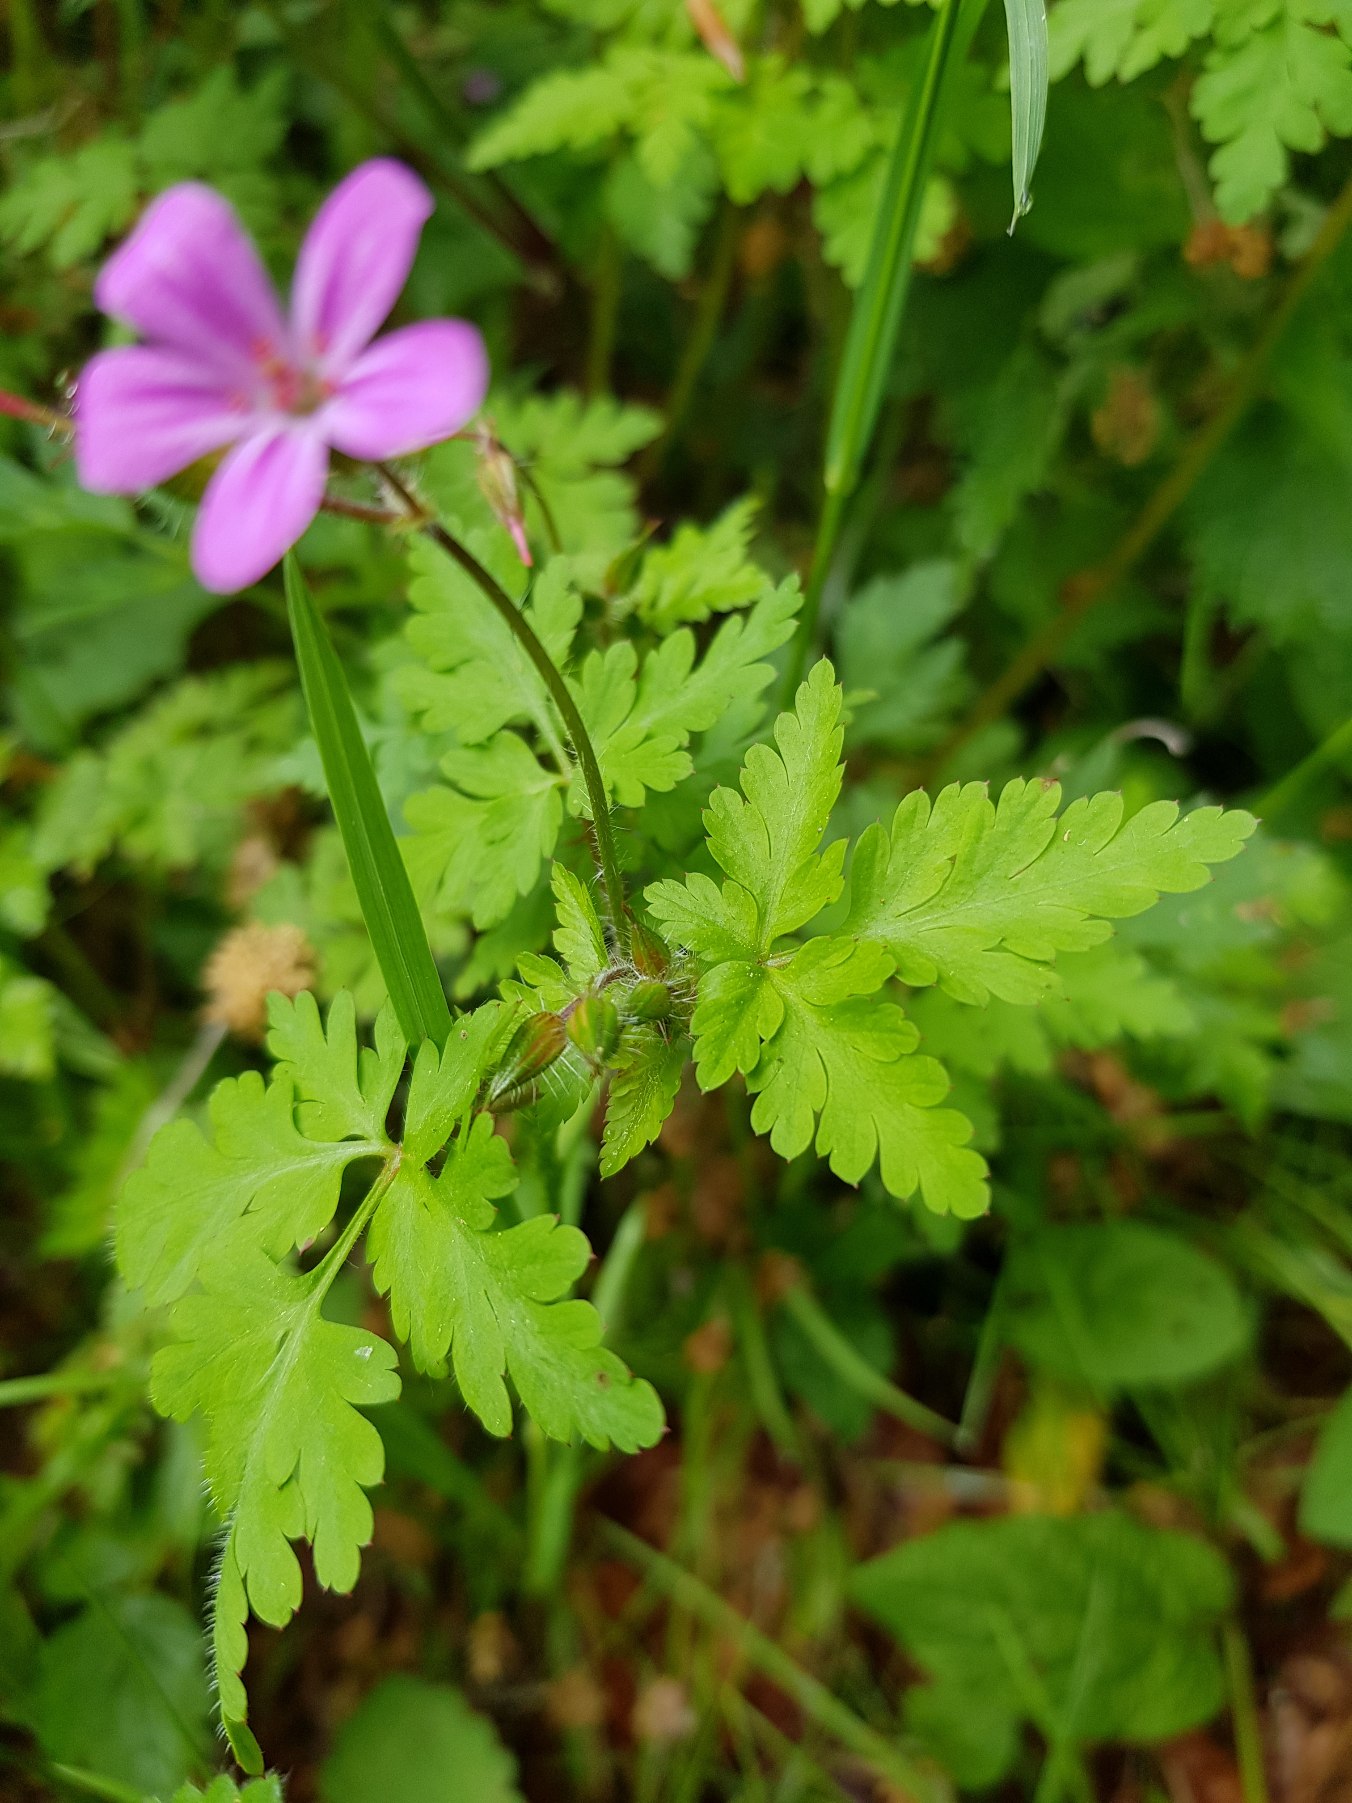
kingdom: Plantae
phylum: Tracheophyta
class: Magnoliopsida
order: Geraniales
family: Geraniaceae
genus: Geranium
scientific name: Geranium robertianum
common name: Stinkende storkenæb
